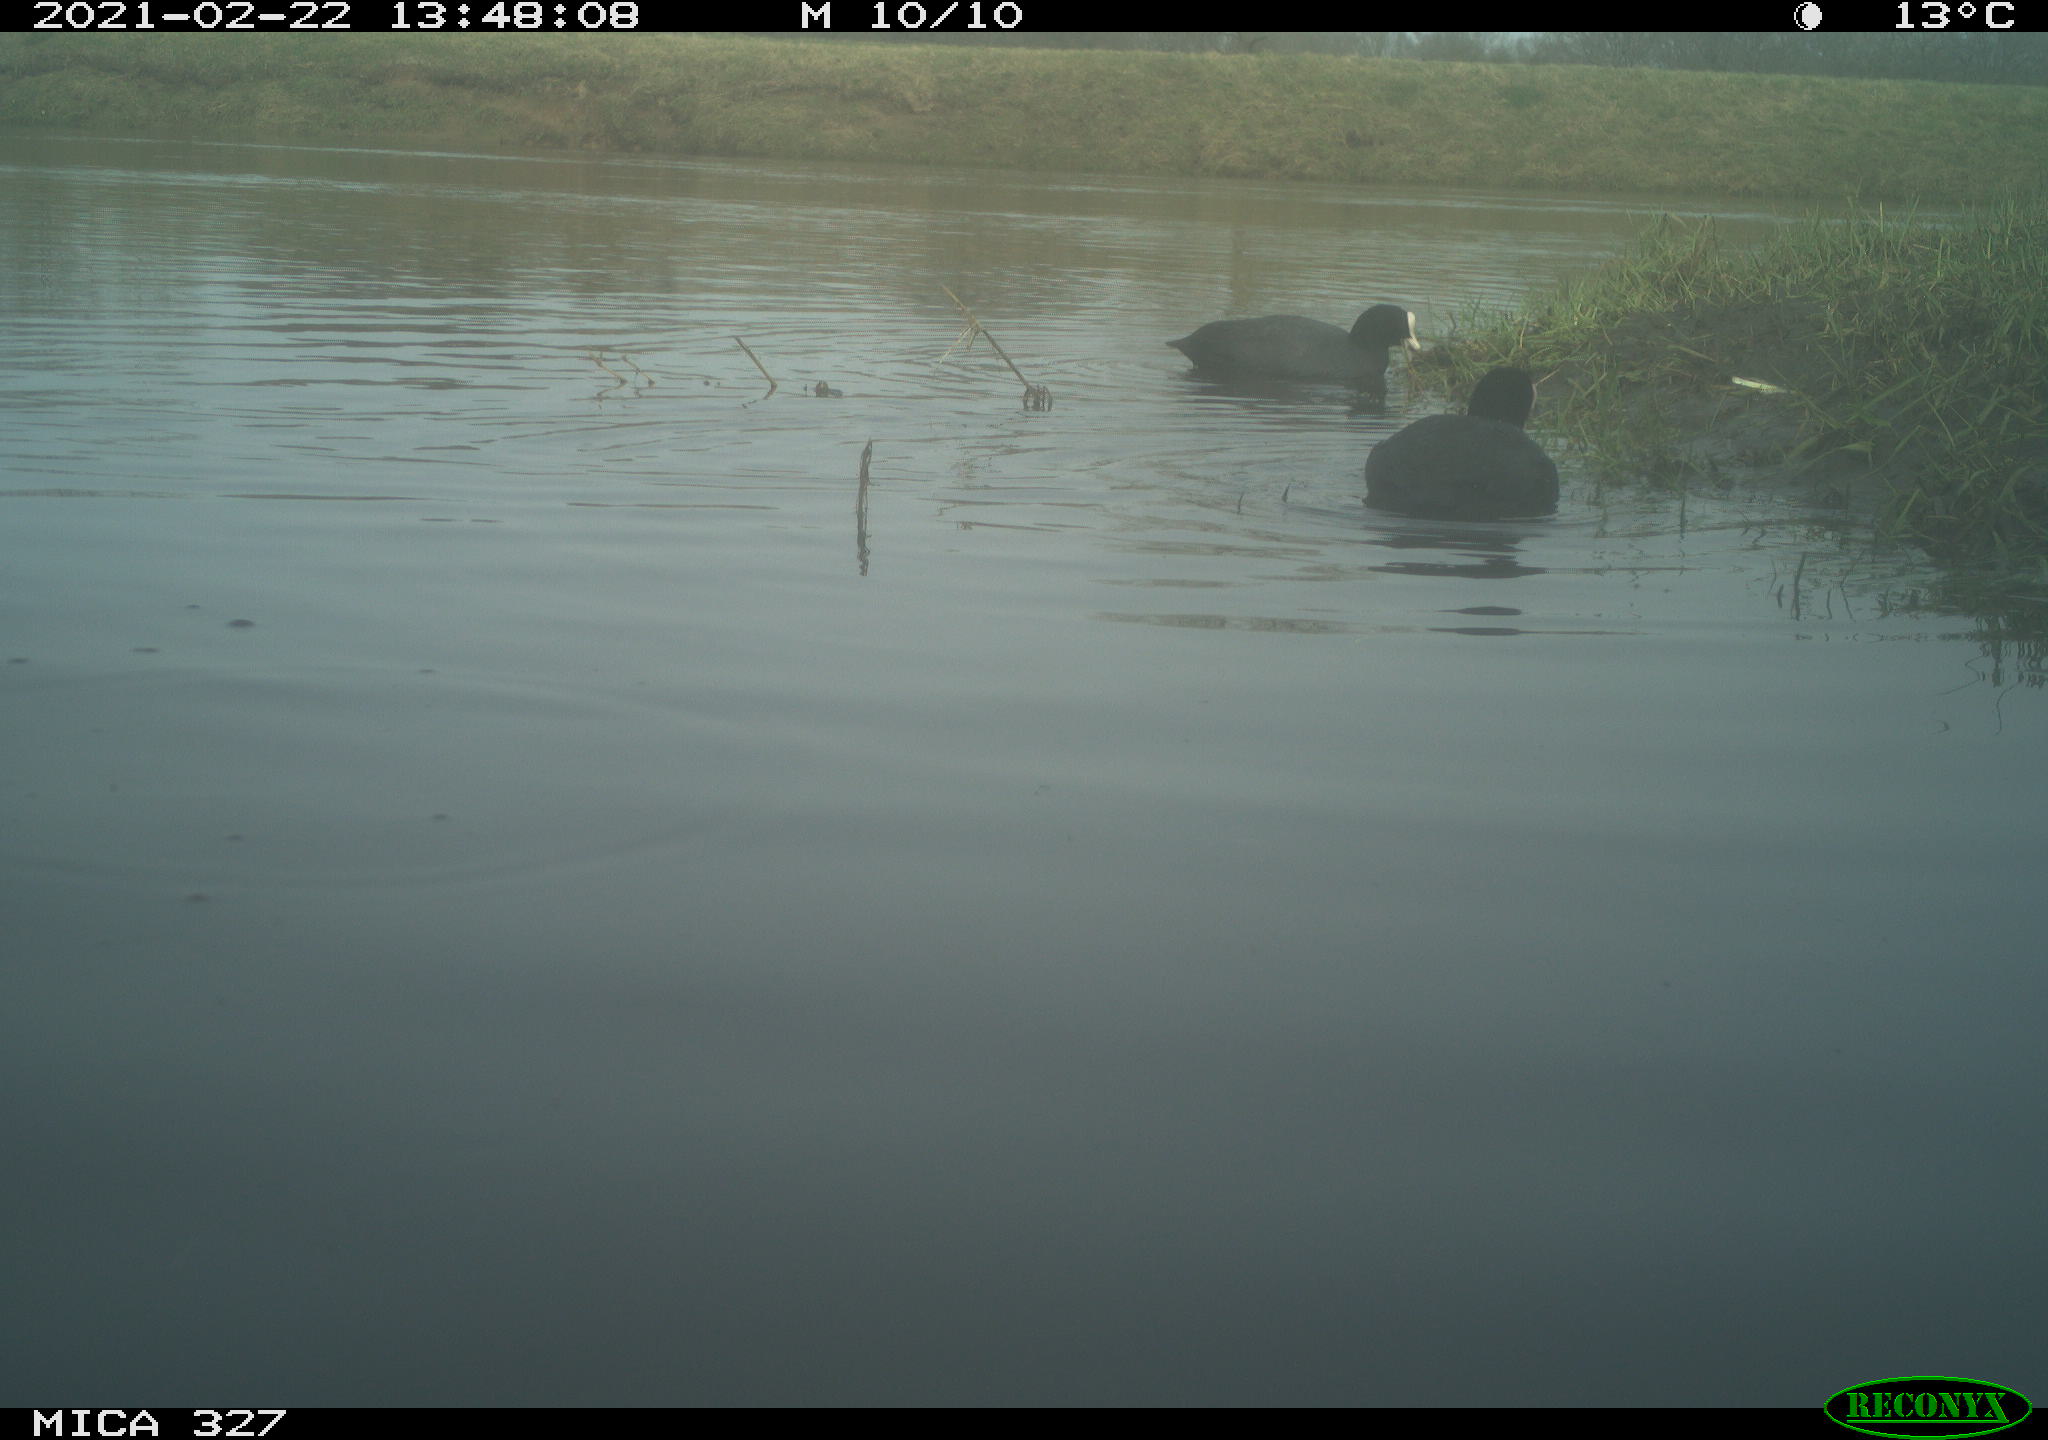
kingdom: Animalia
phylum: Chordata
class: Aves
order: Gruiformes
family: Rallidae
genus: Fulica
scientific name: Fulica atra
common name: Eurasian coot
